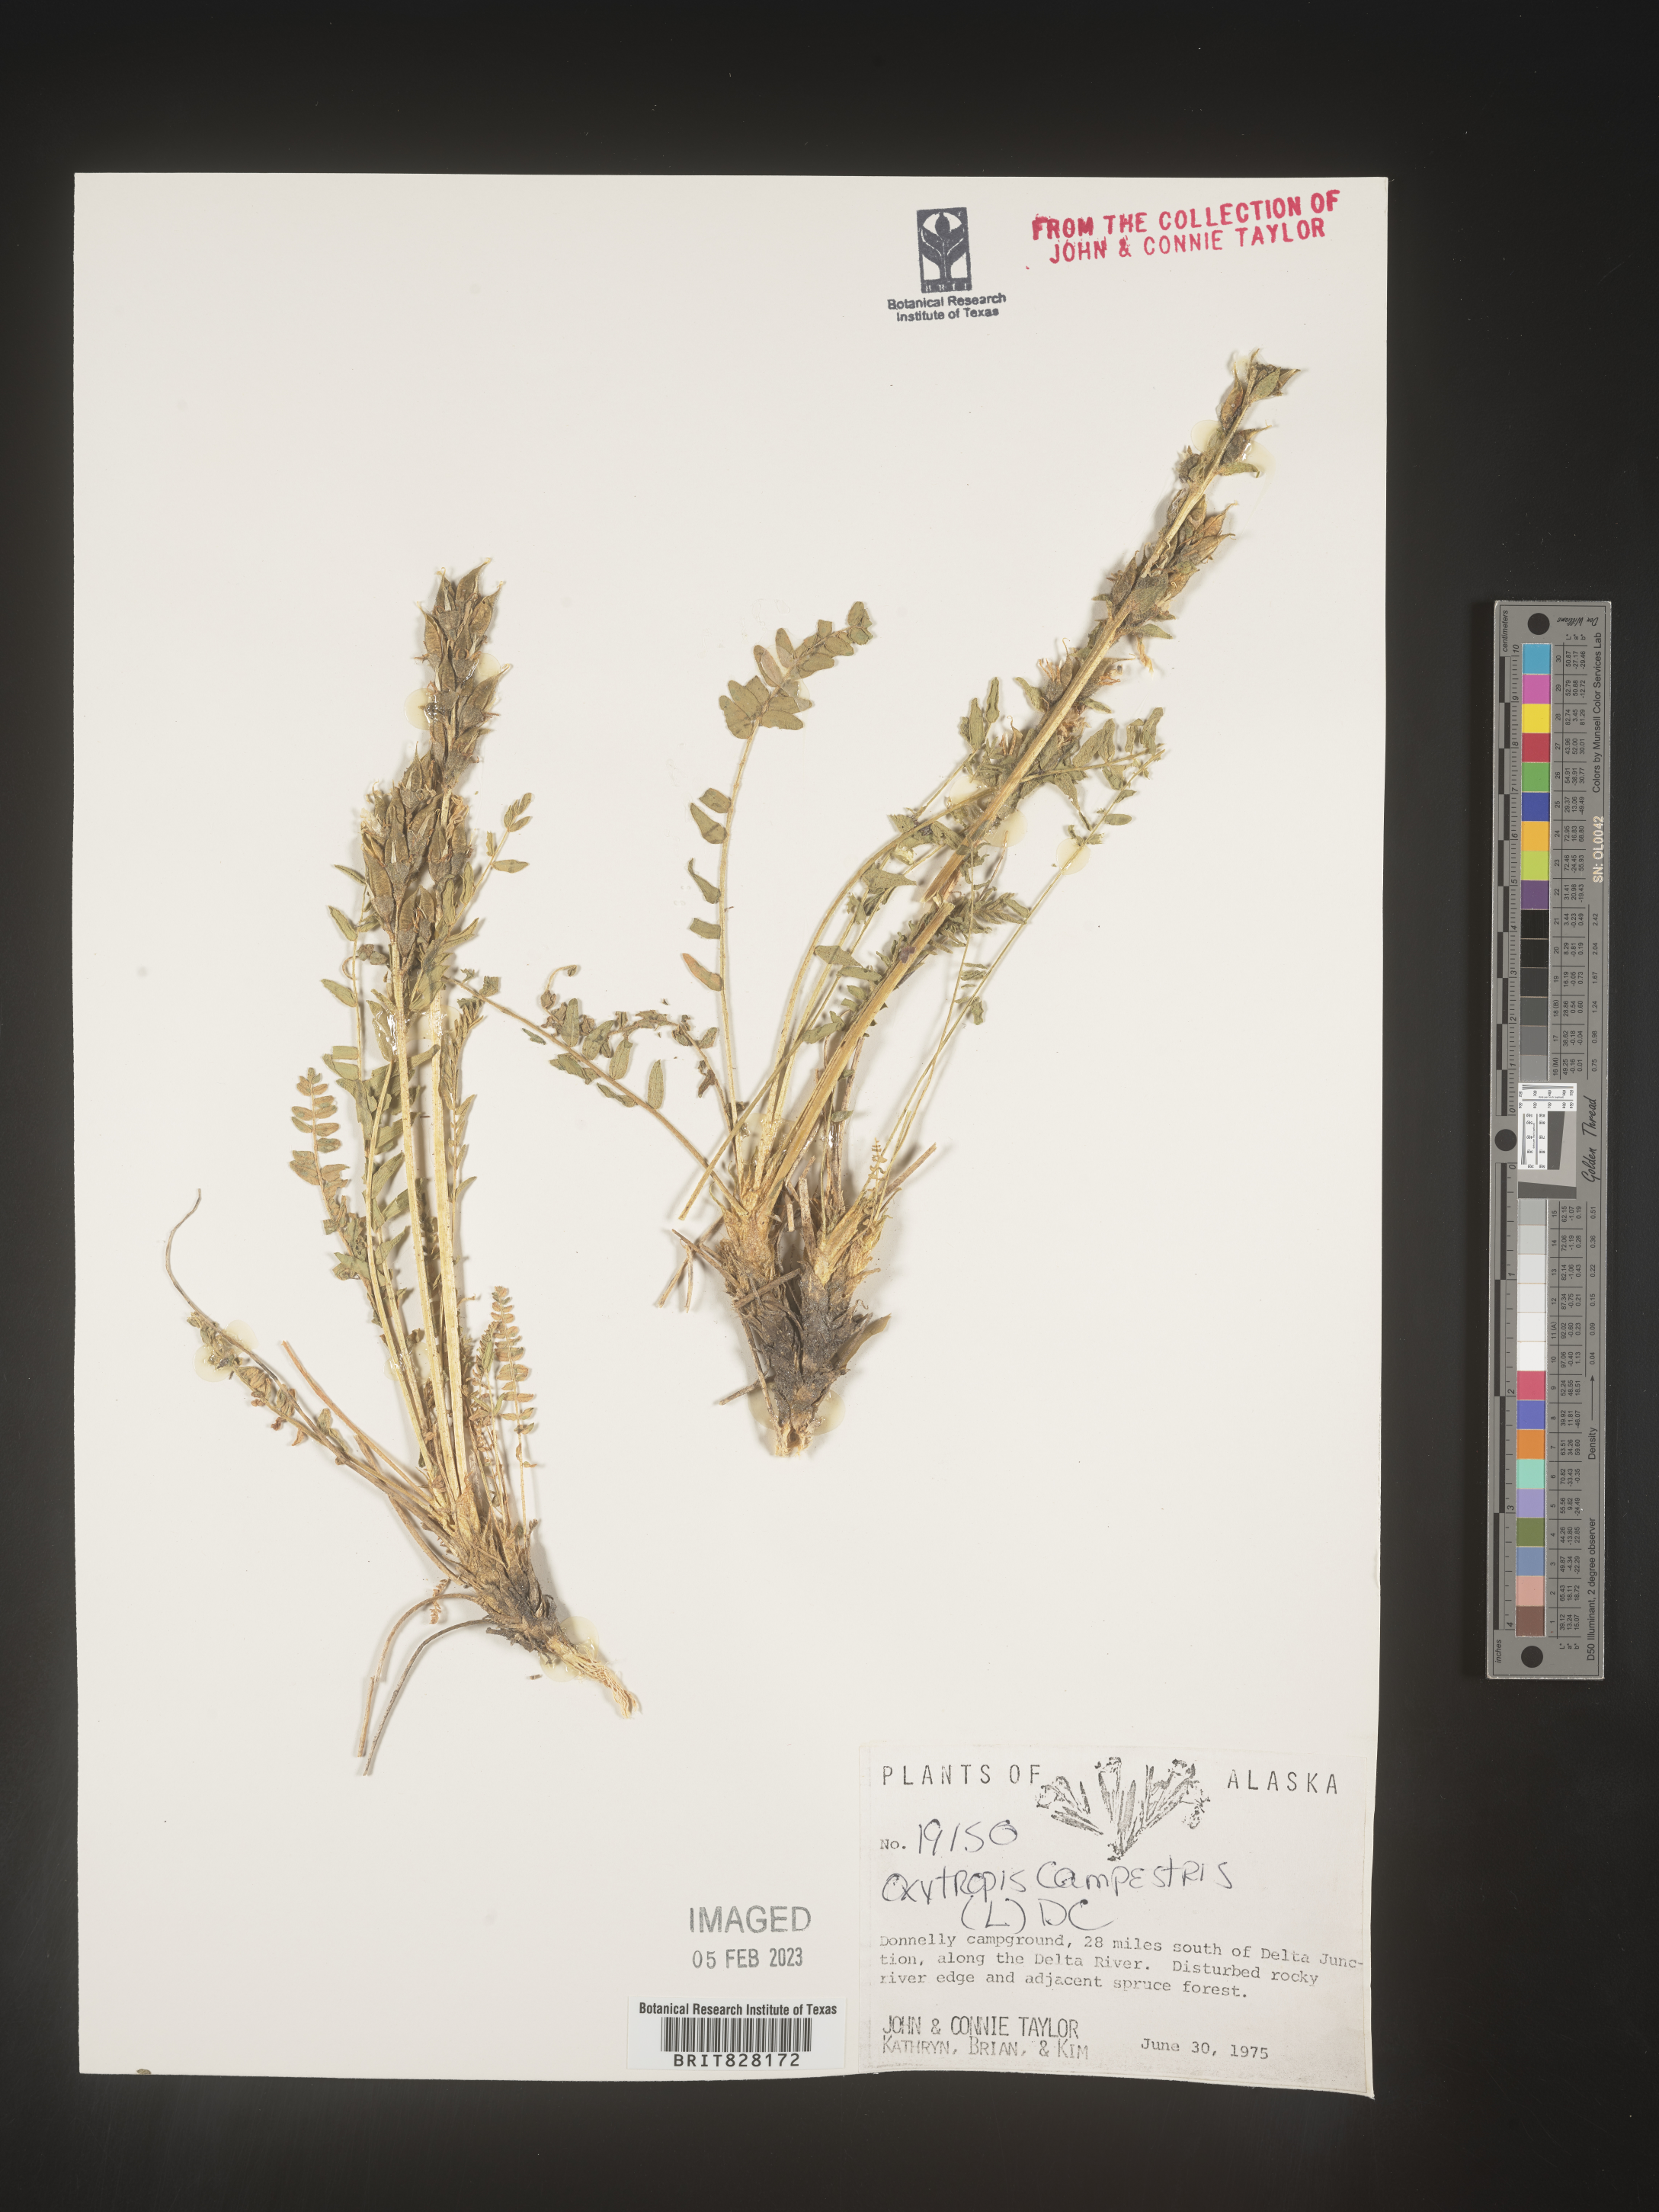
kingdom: Plantae
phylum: Tracheophyta
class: Magnoliopsida
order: Fabales
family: Fabaceae
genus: Oxytropis
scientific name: Oxytropis campestris
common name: Field locoweed
